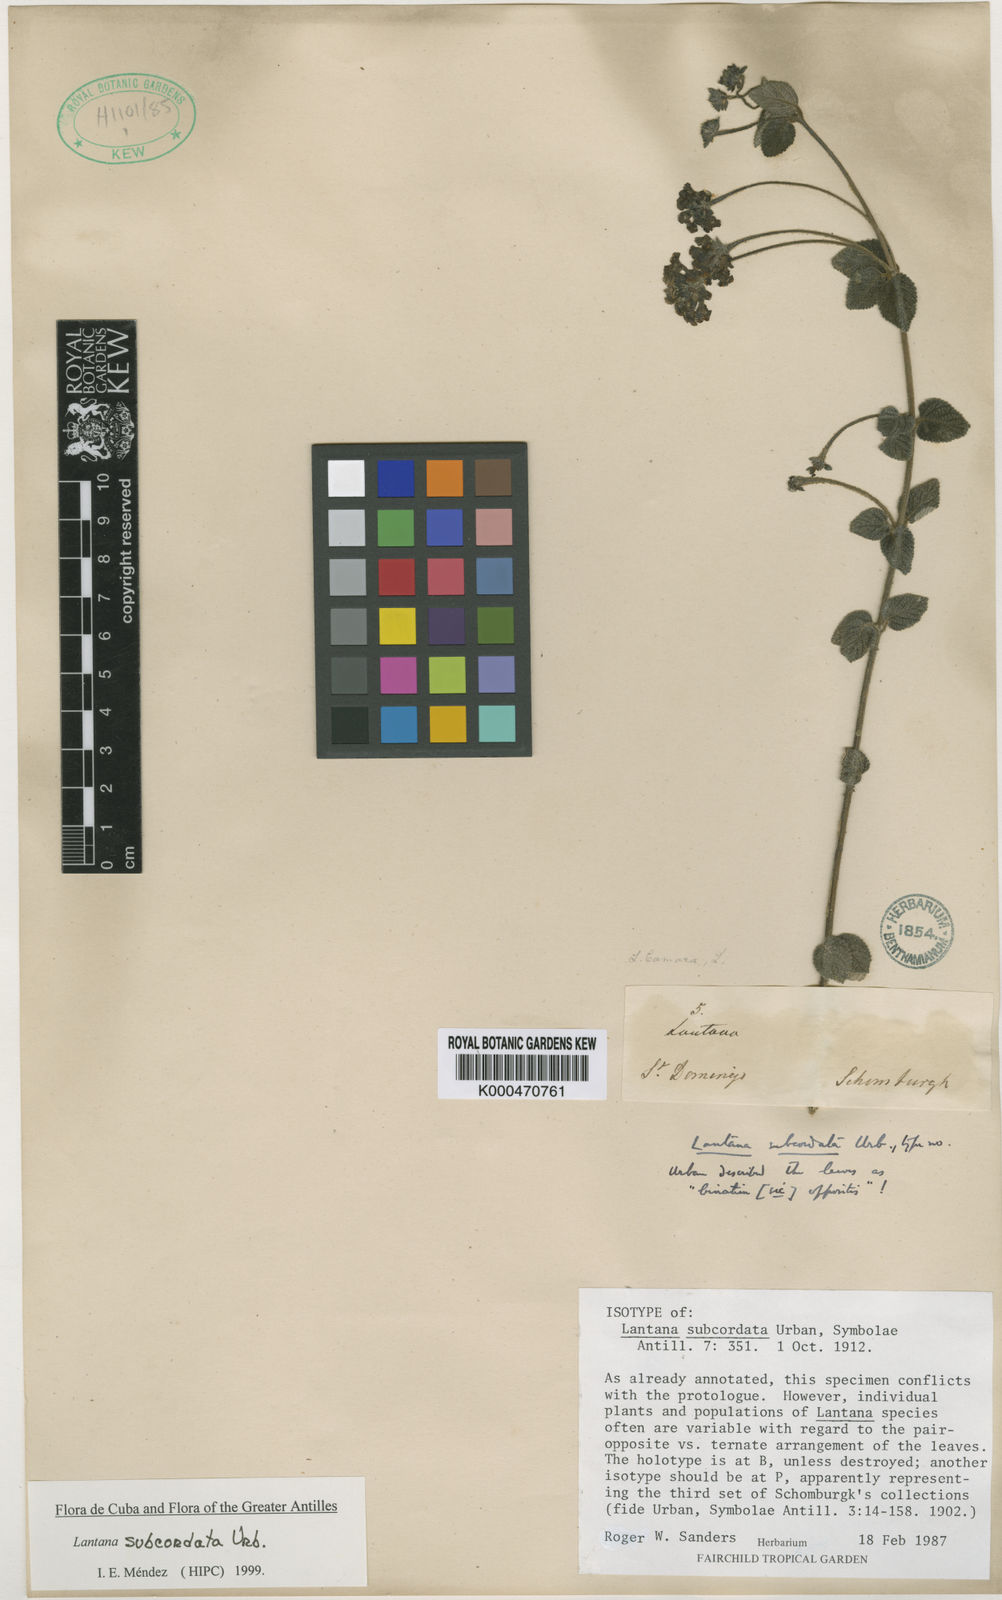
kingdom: Plantae
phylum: Tracheophyta
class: Magnoliopsida
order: Lamiales
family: Verbenaceae
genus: Lantana
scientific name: Lantana horrida
